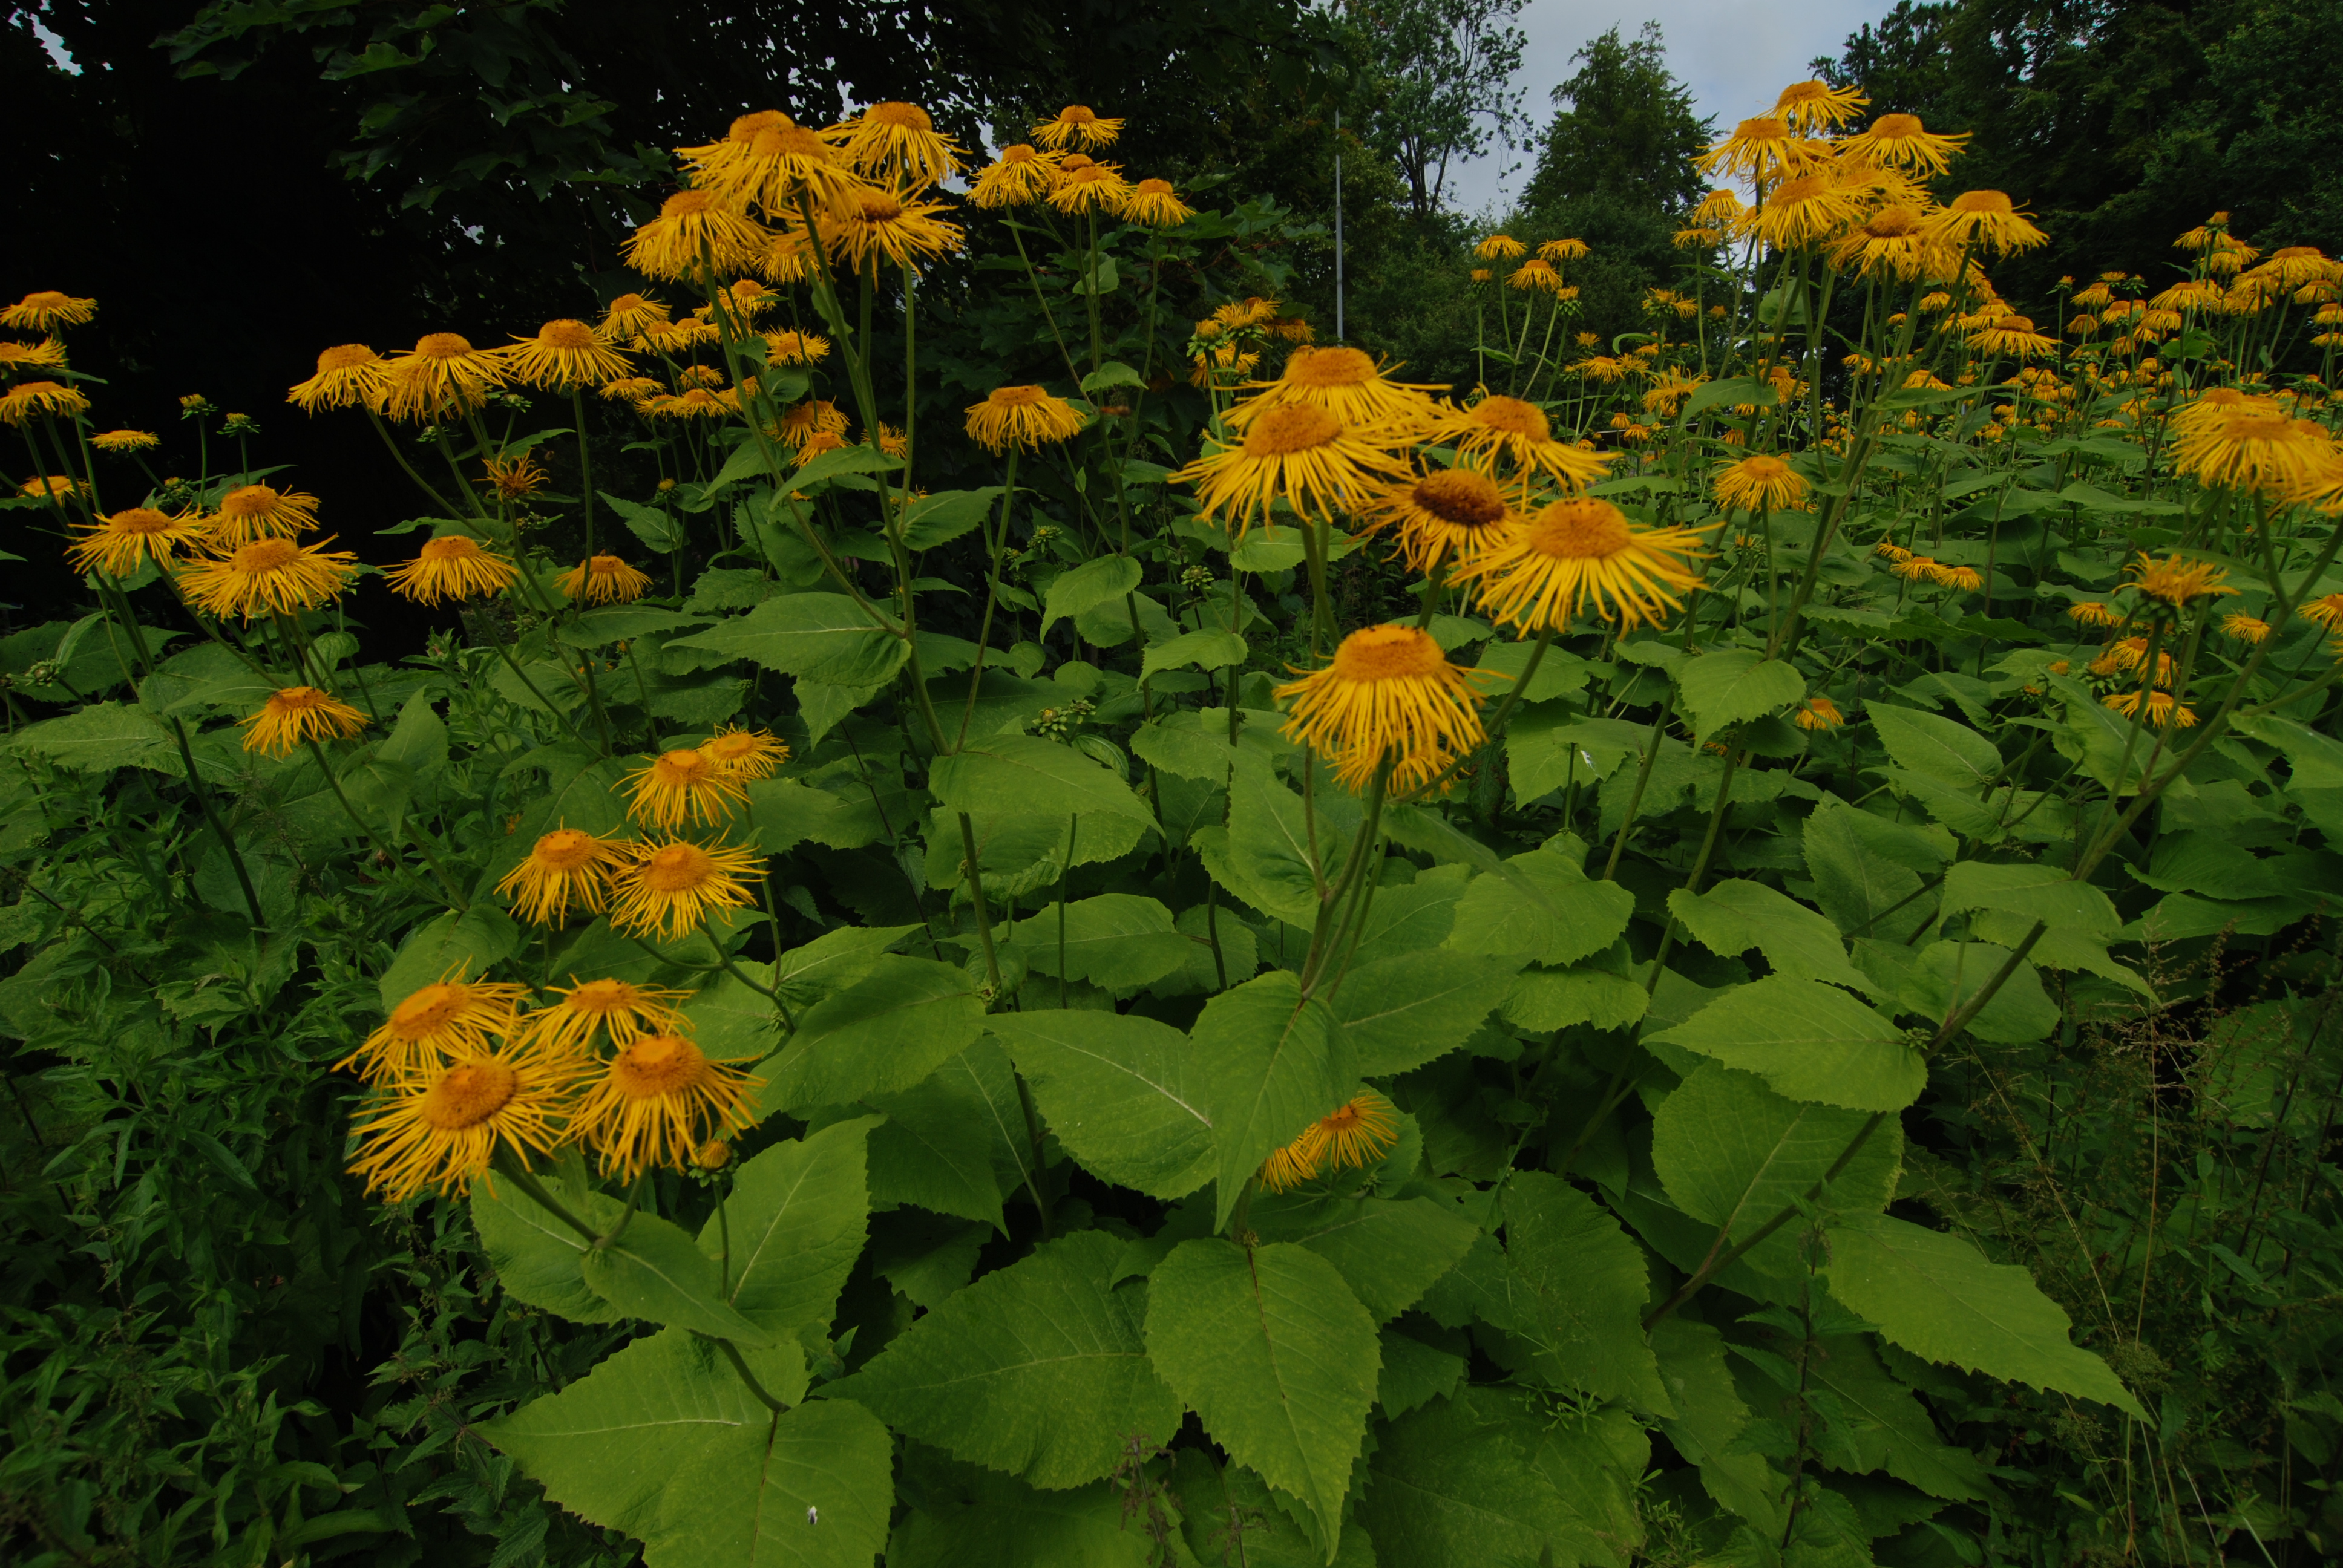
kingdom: Plantae
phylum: Tracheophyta
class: Magnoliopsida
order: Asterales
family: Asteraceae
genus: Telekia
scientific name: Telekia speciosa
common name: Yellow oxeye
